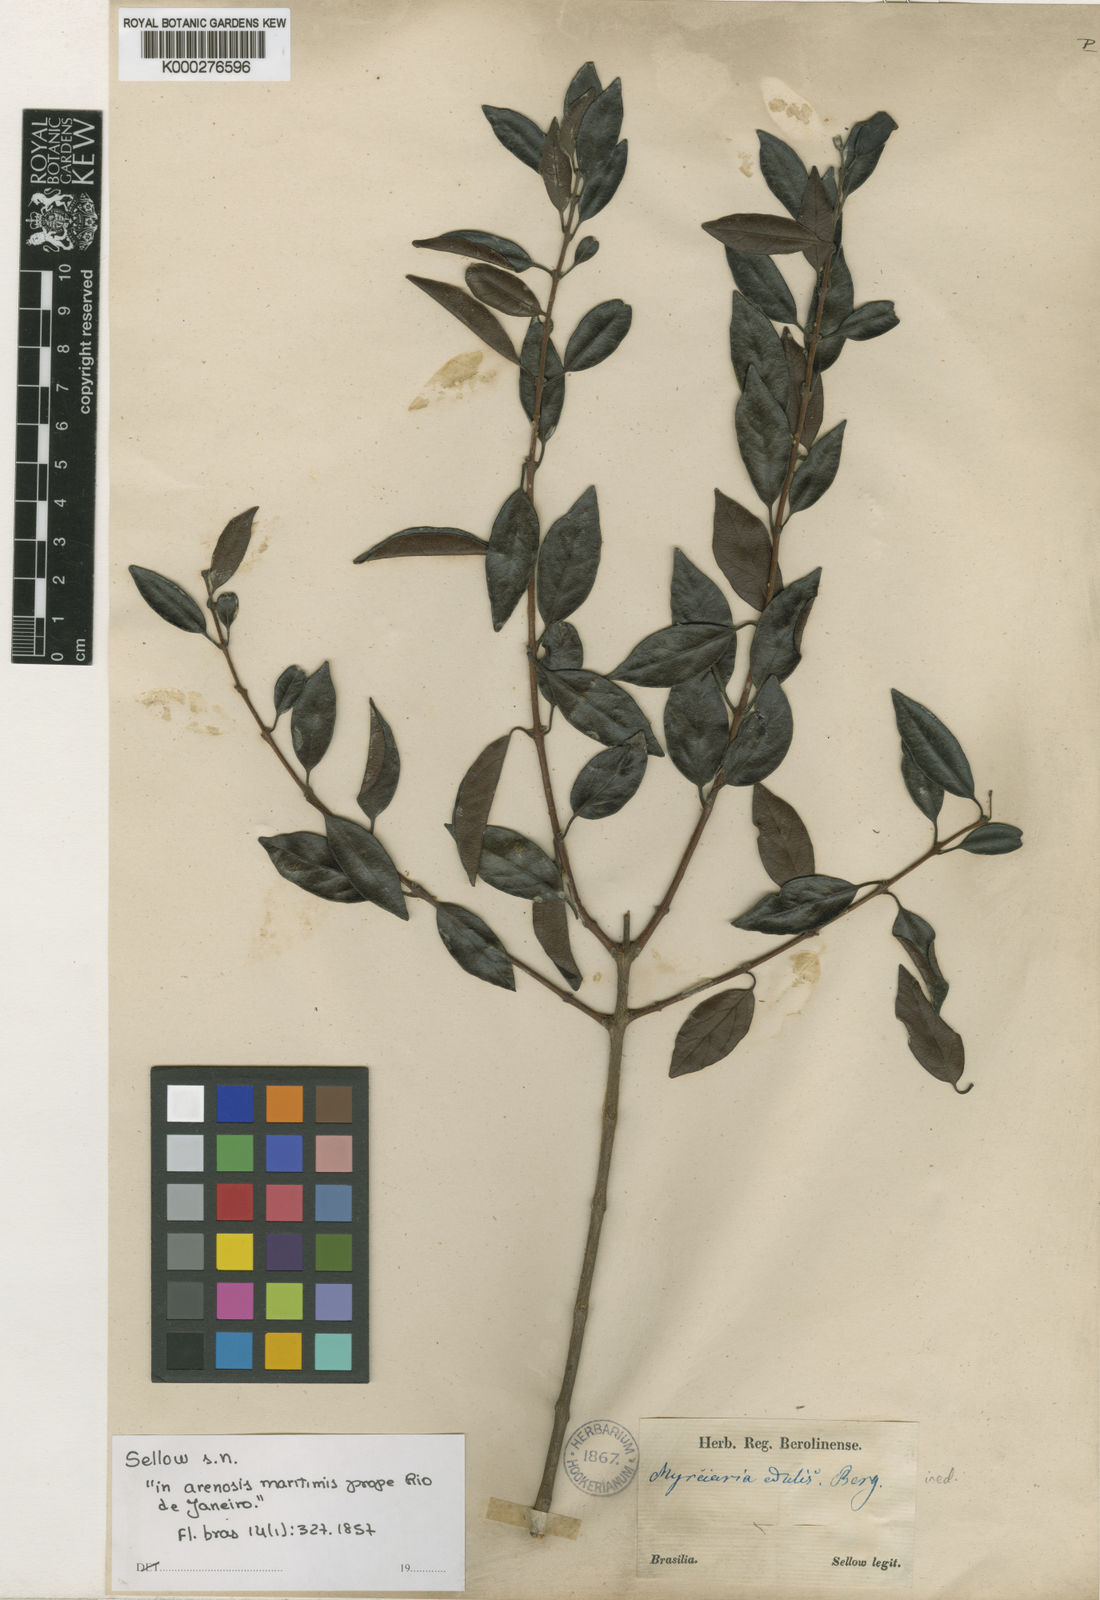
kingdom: Plantae
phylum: Tracheophyta
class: Magnoliopsida
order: Myrtales
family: Myrtaceae
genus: Eugenia
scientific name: Eugenia selloi
